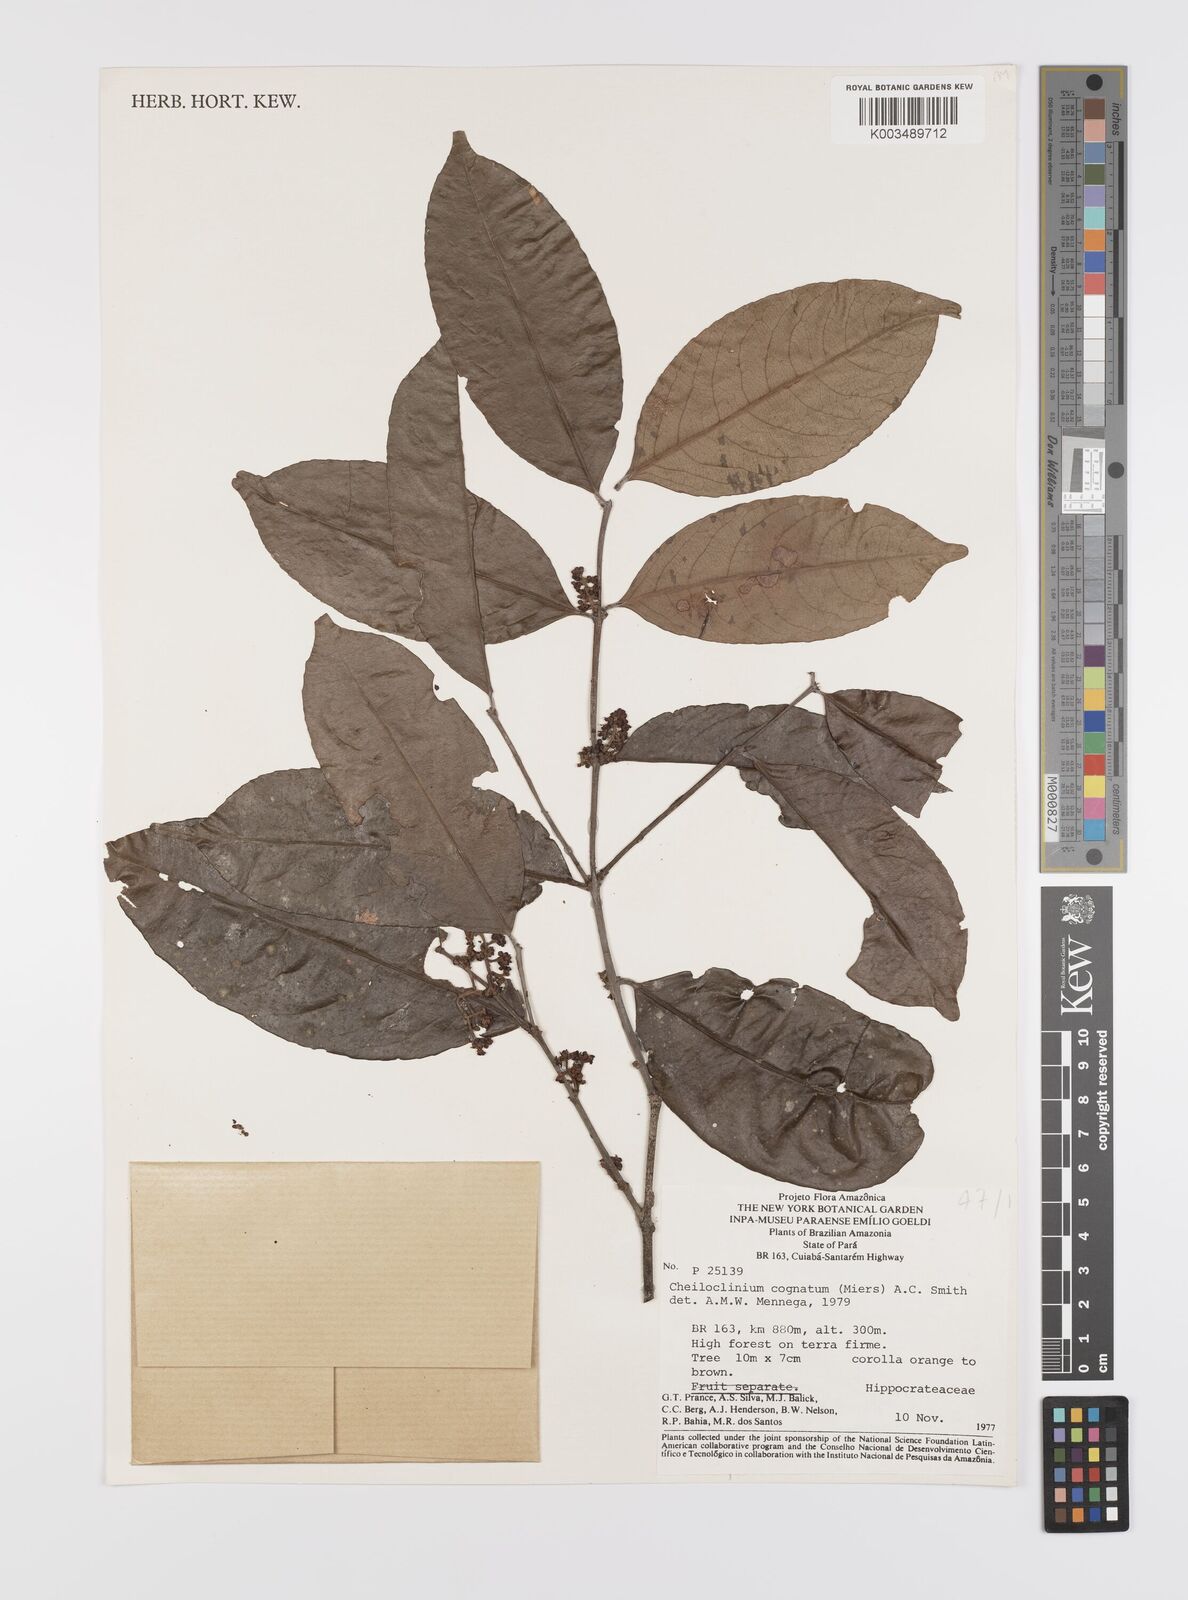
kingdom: Plantae
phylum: Tracheophyta
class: Magnoliopsida
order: Celastrales
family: Celastraceae
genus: Cheiloclinium
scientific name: Cheiloclinium cognatum
